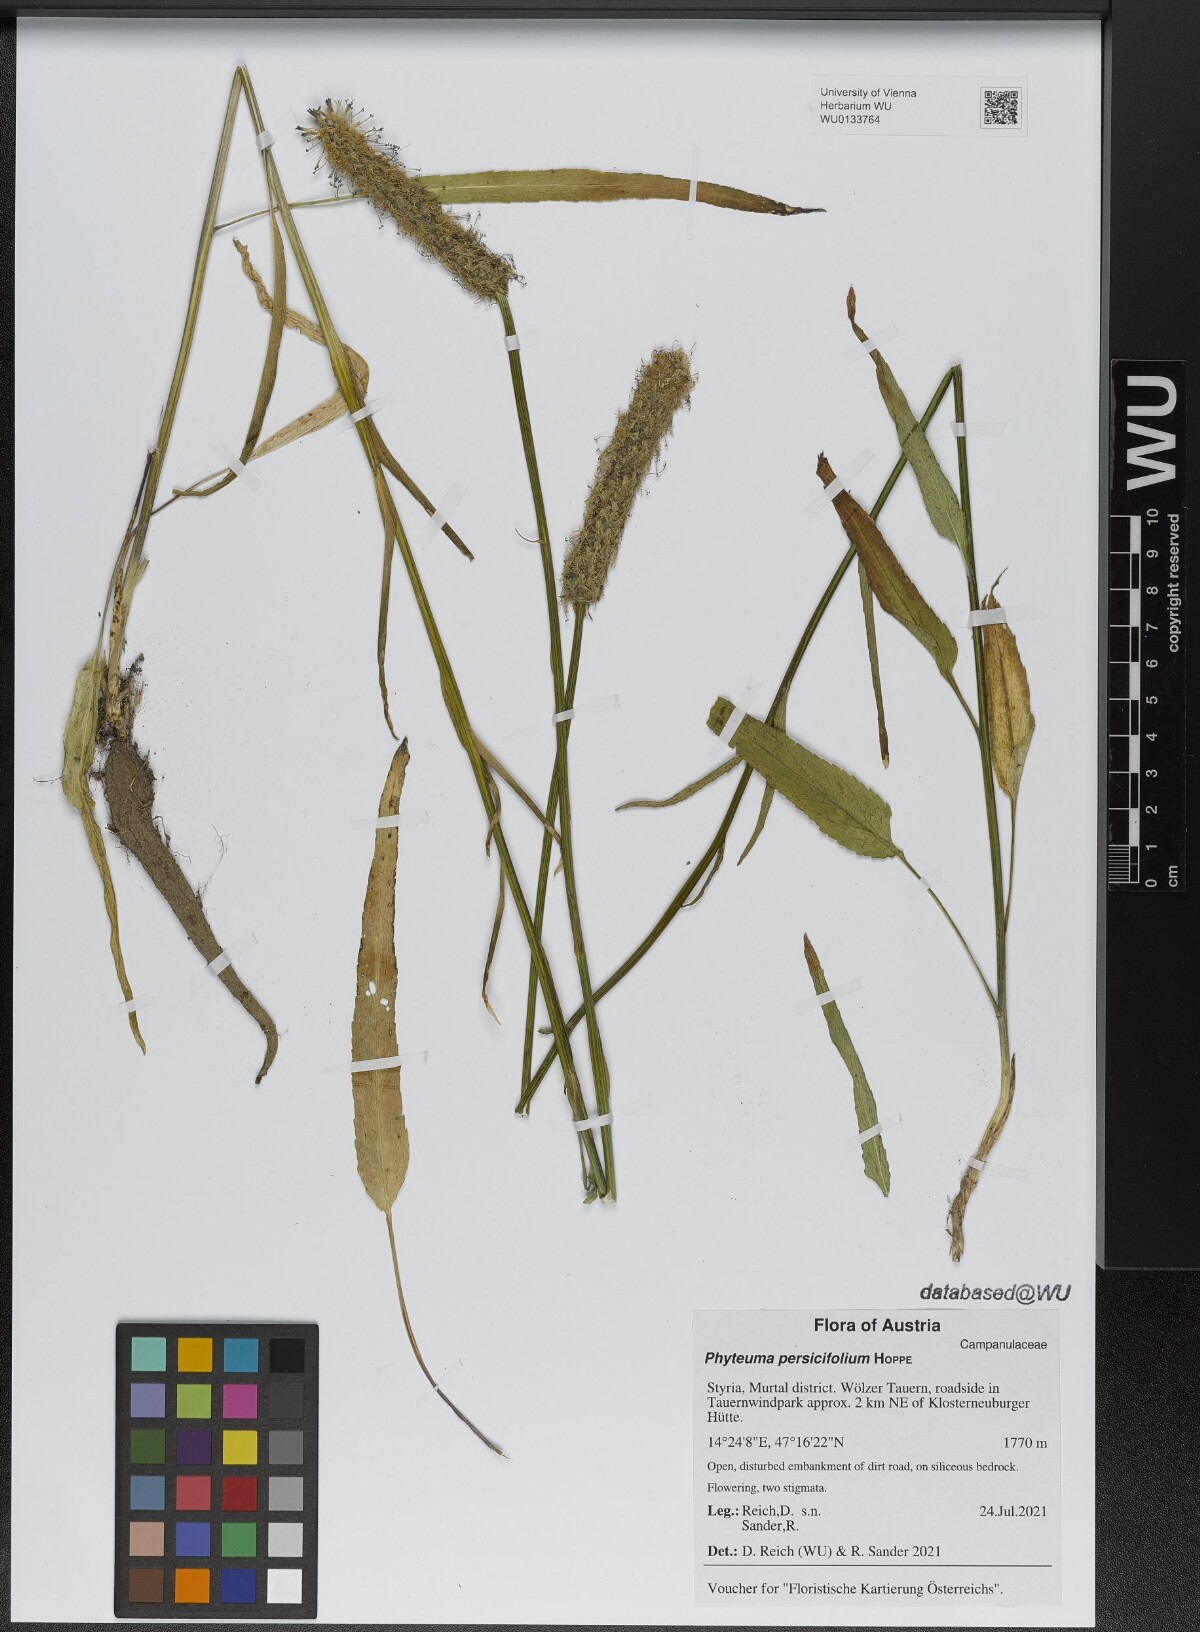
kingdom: Plantae
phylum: Tracheophyta
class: Magnoliopsida
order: Asterales
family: Campanulaceae
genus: Phyteuma
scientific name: Phyteuma persicifolium
